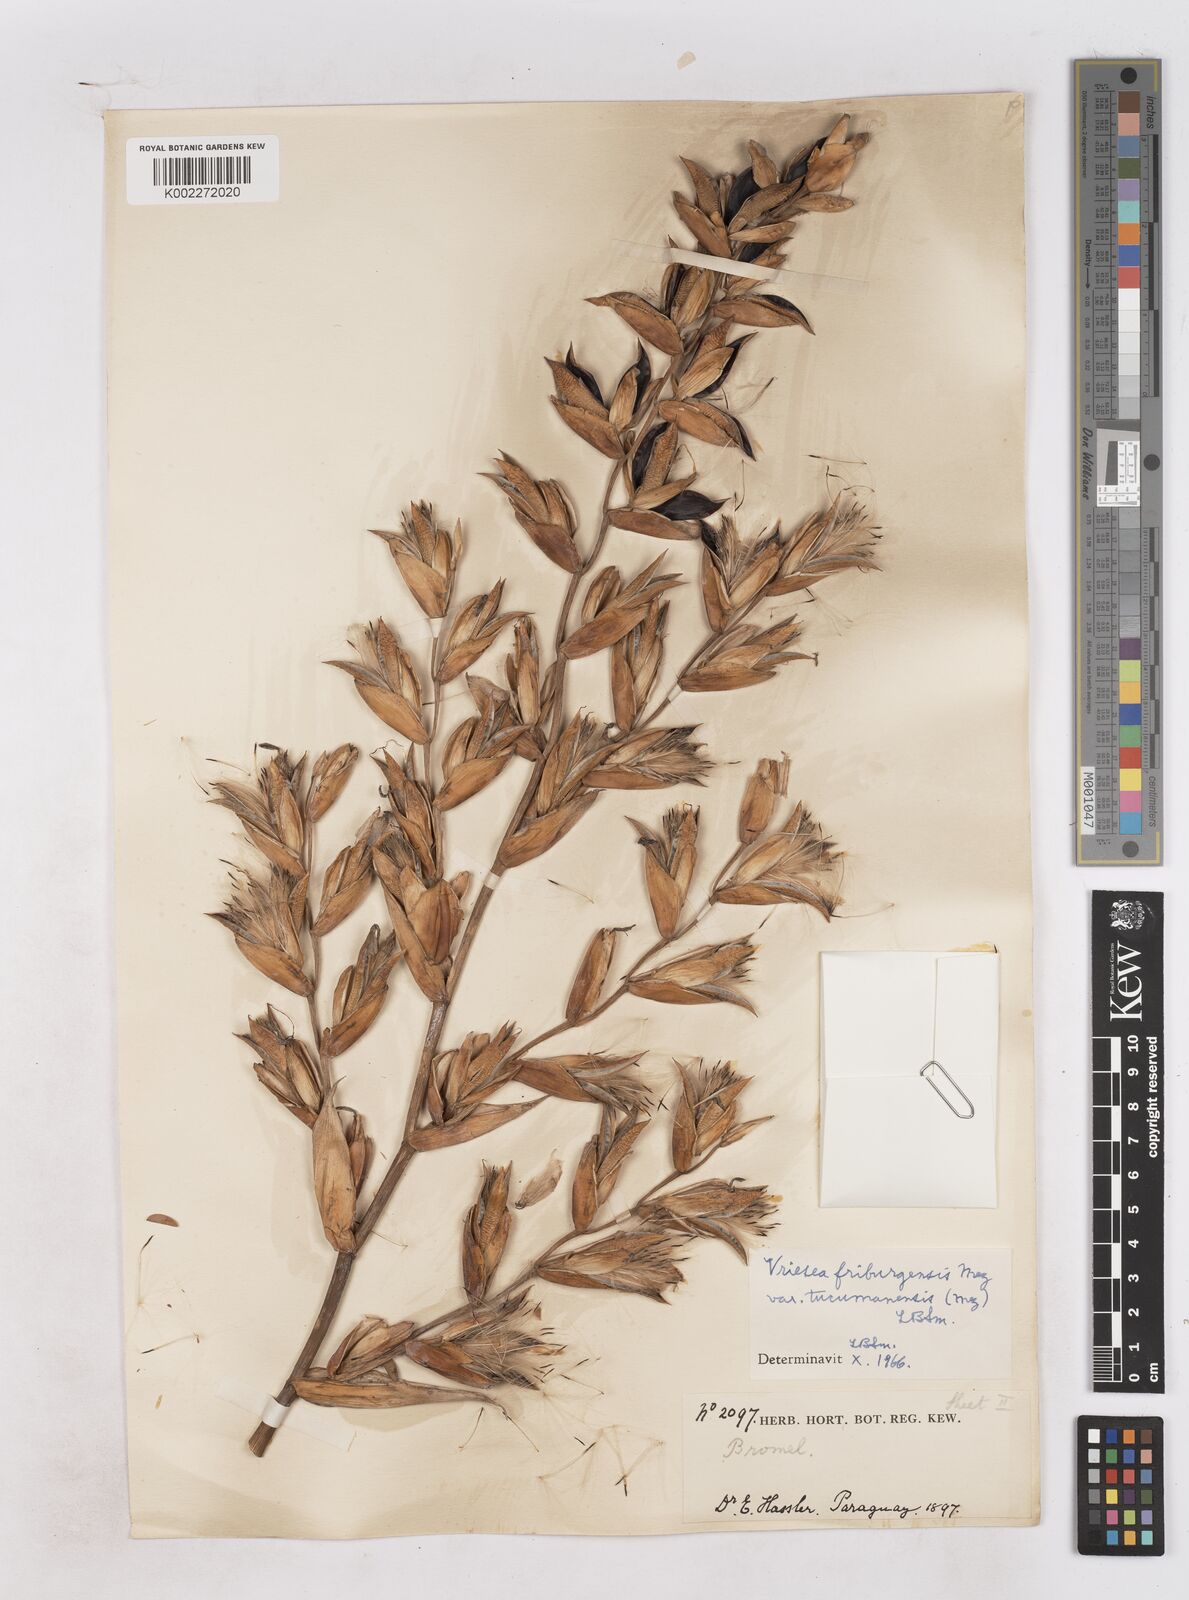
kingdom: Plantae
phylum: Tracheophyta
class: Liliopsida
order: Poales
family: Bromeliaceae
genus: Vriesea
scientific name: Vriesea friburgensis
